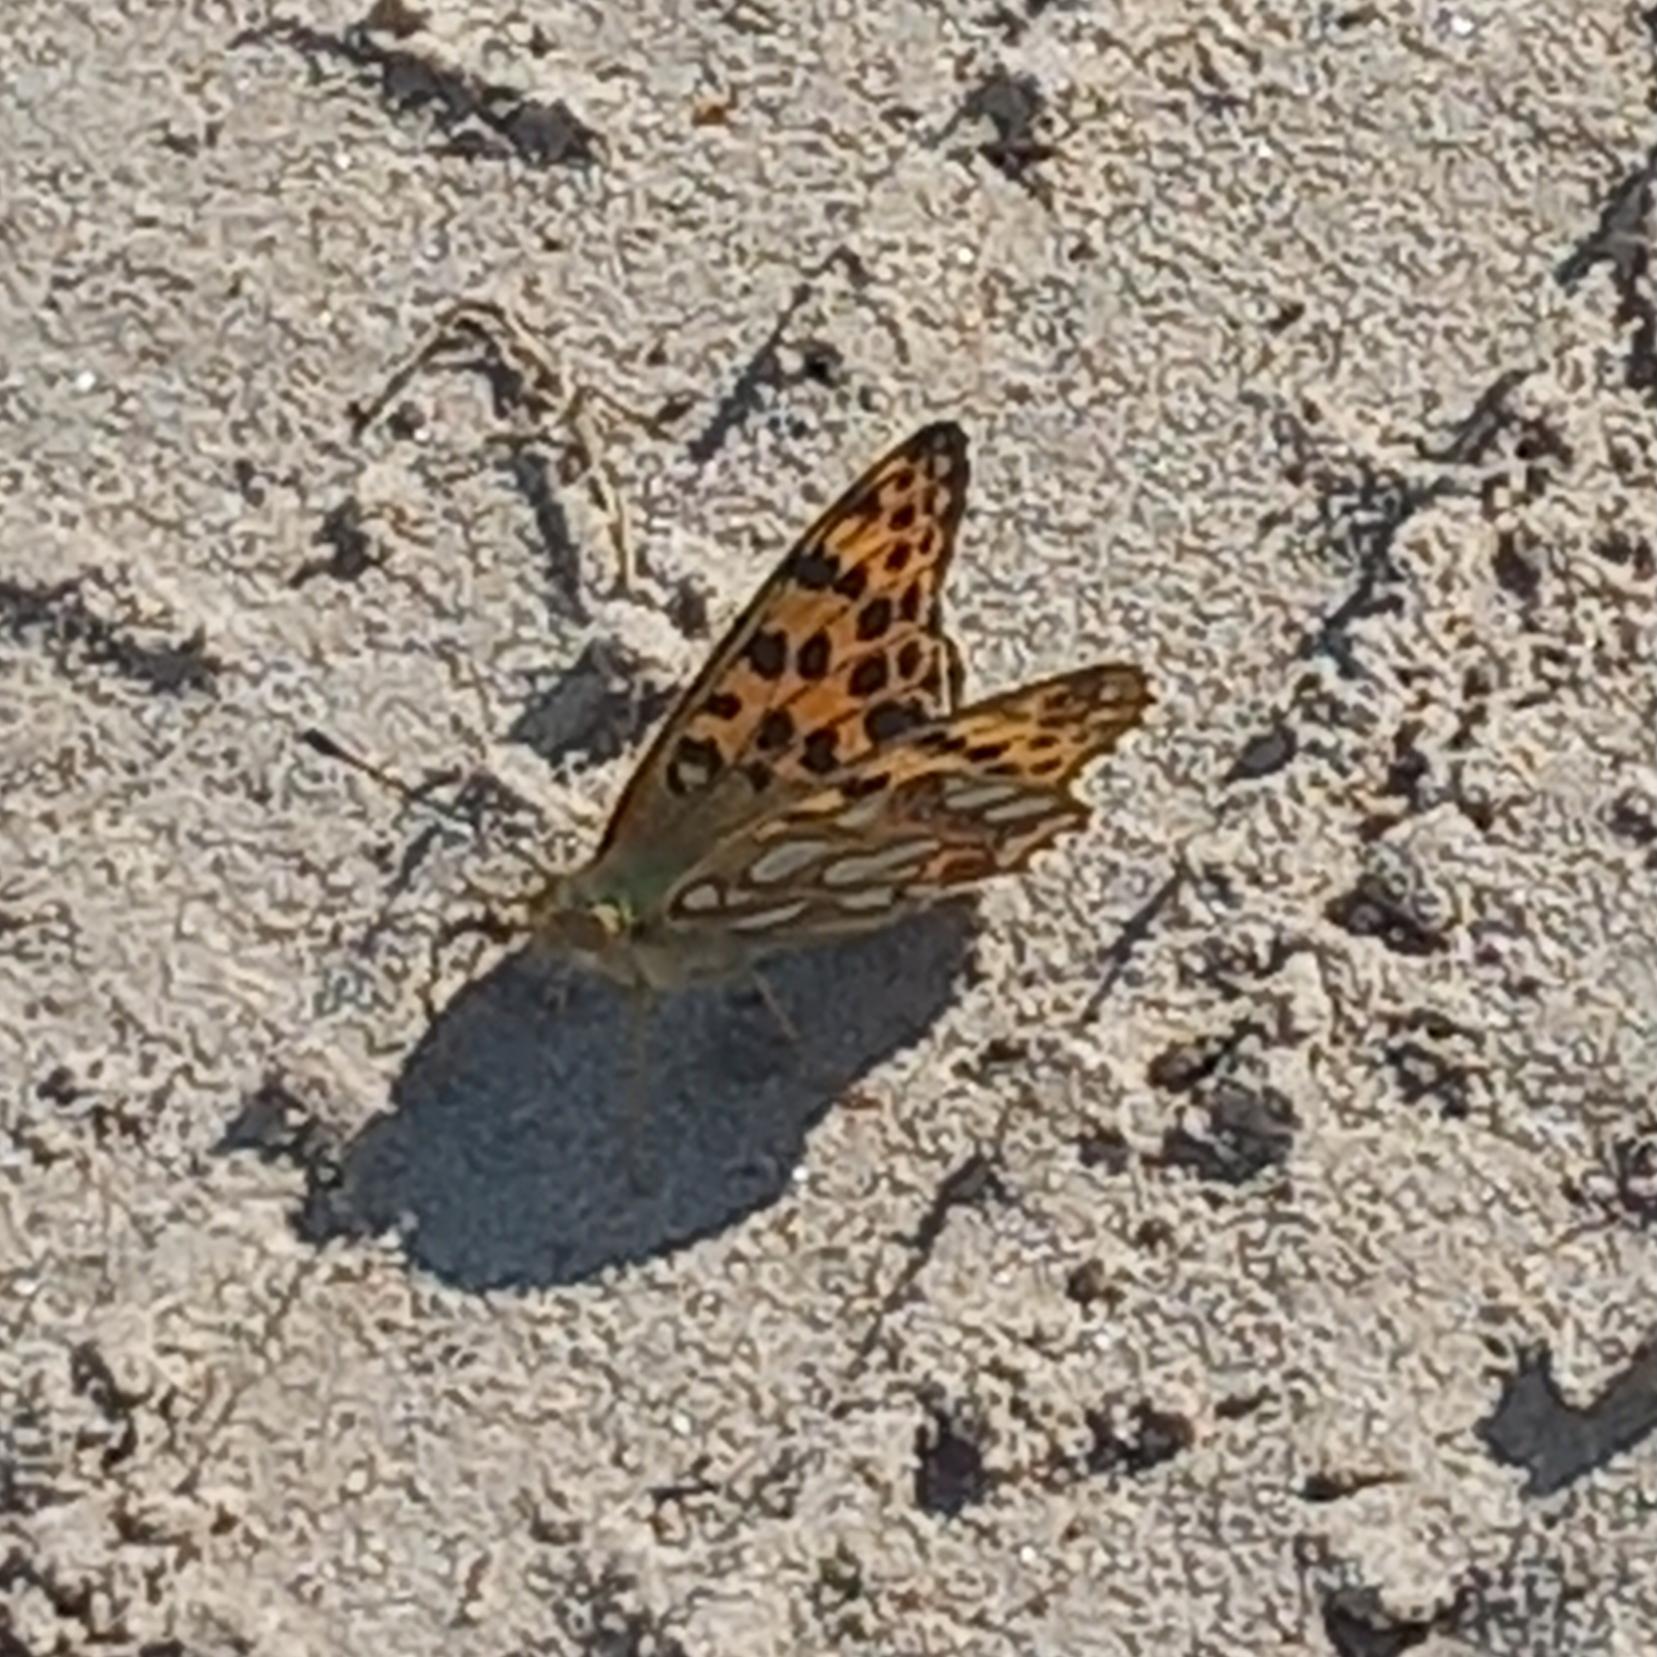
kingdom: Animalia
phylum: Arthropoda
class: Insecta
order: Lepidoptera
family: Nymphalidae
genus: Issoria
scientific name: Issoria lathonia
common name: Storplettet perlemorsommerfugl
